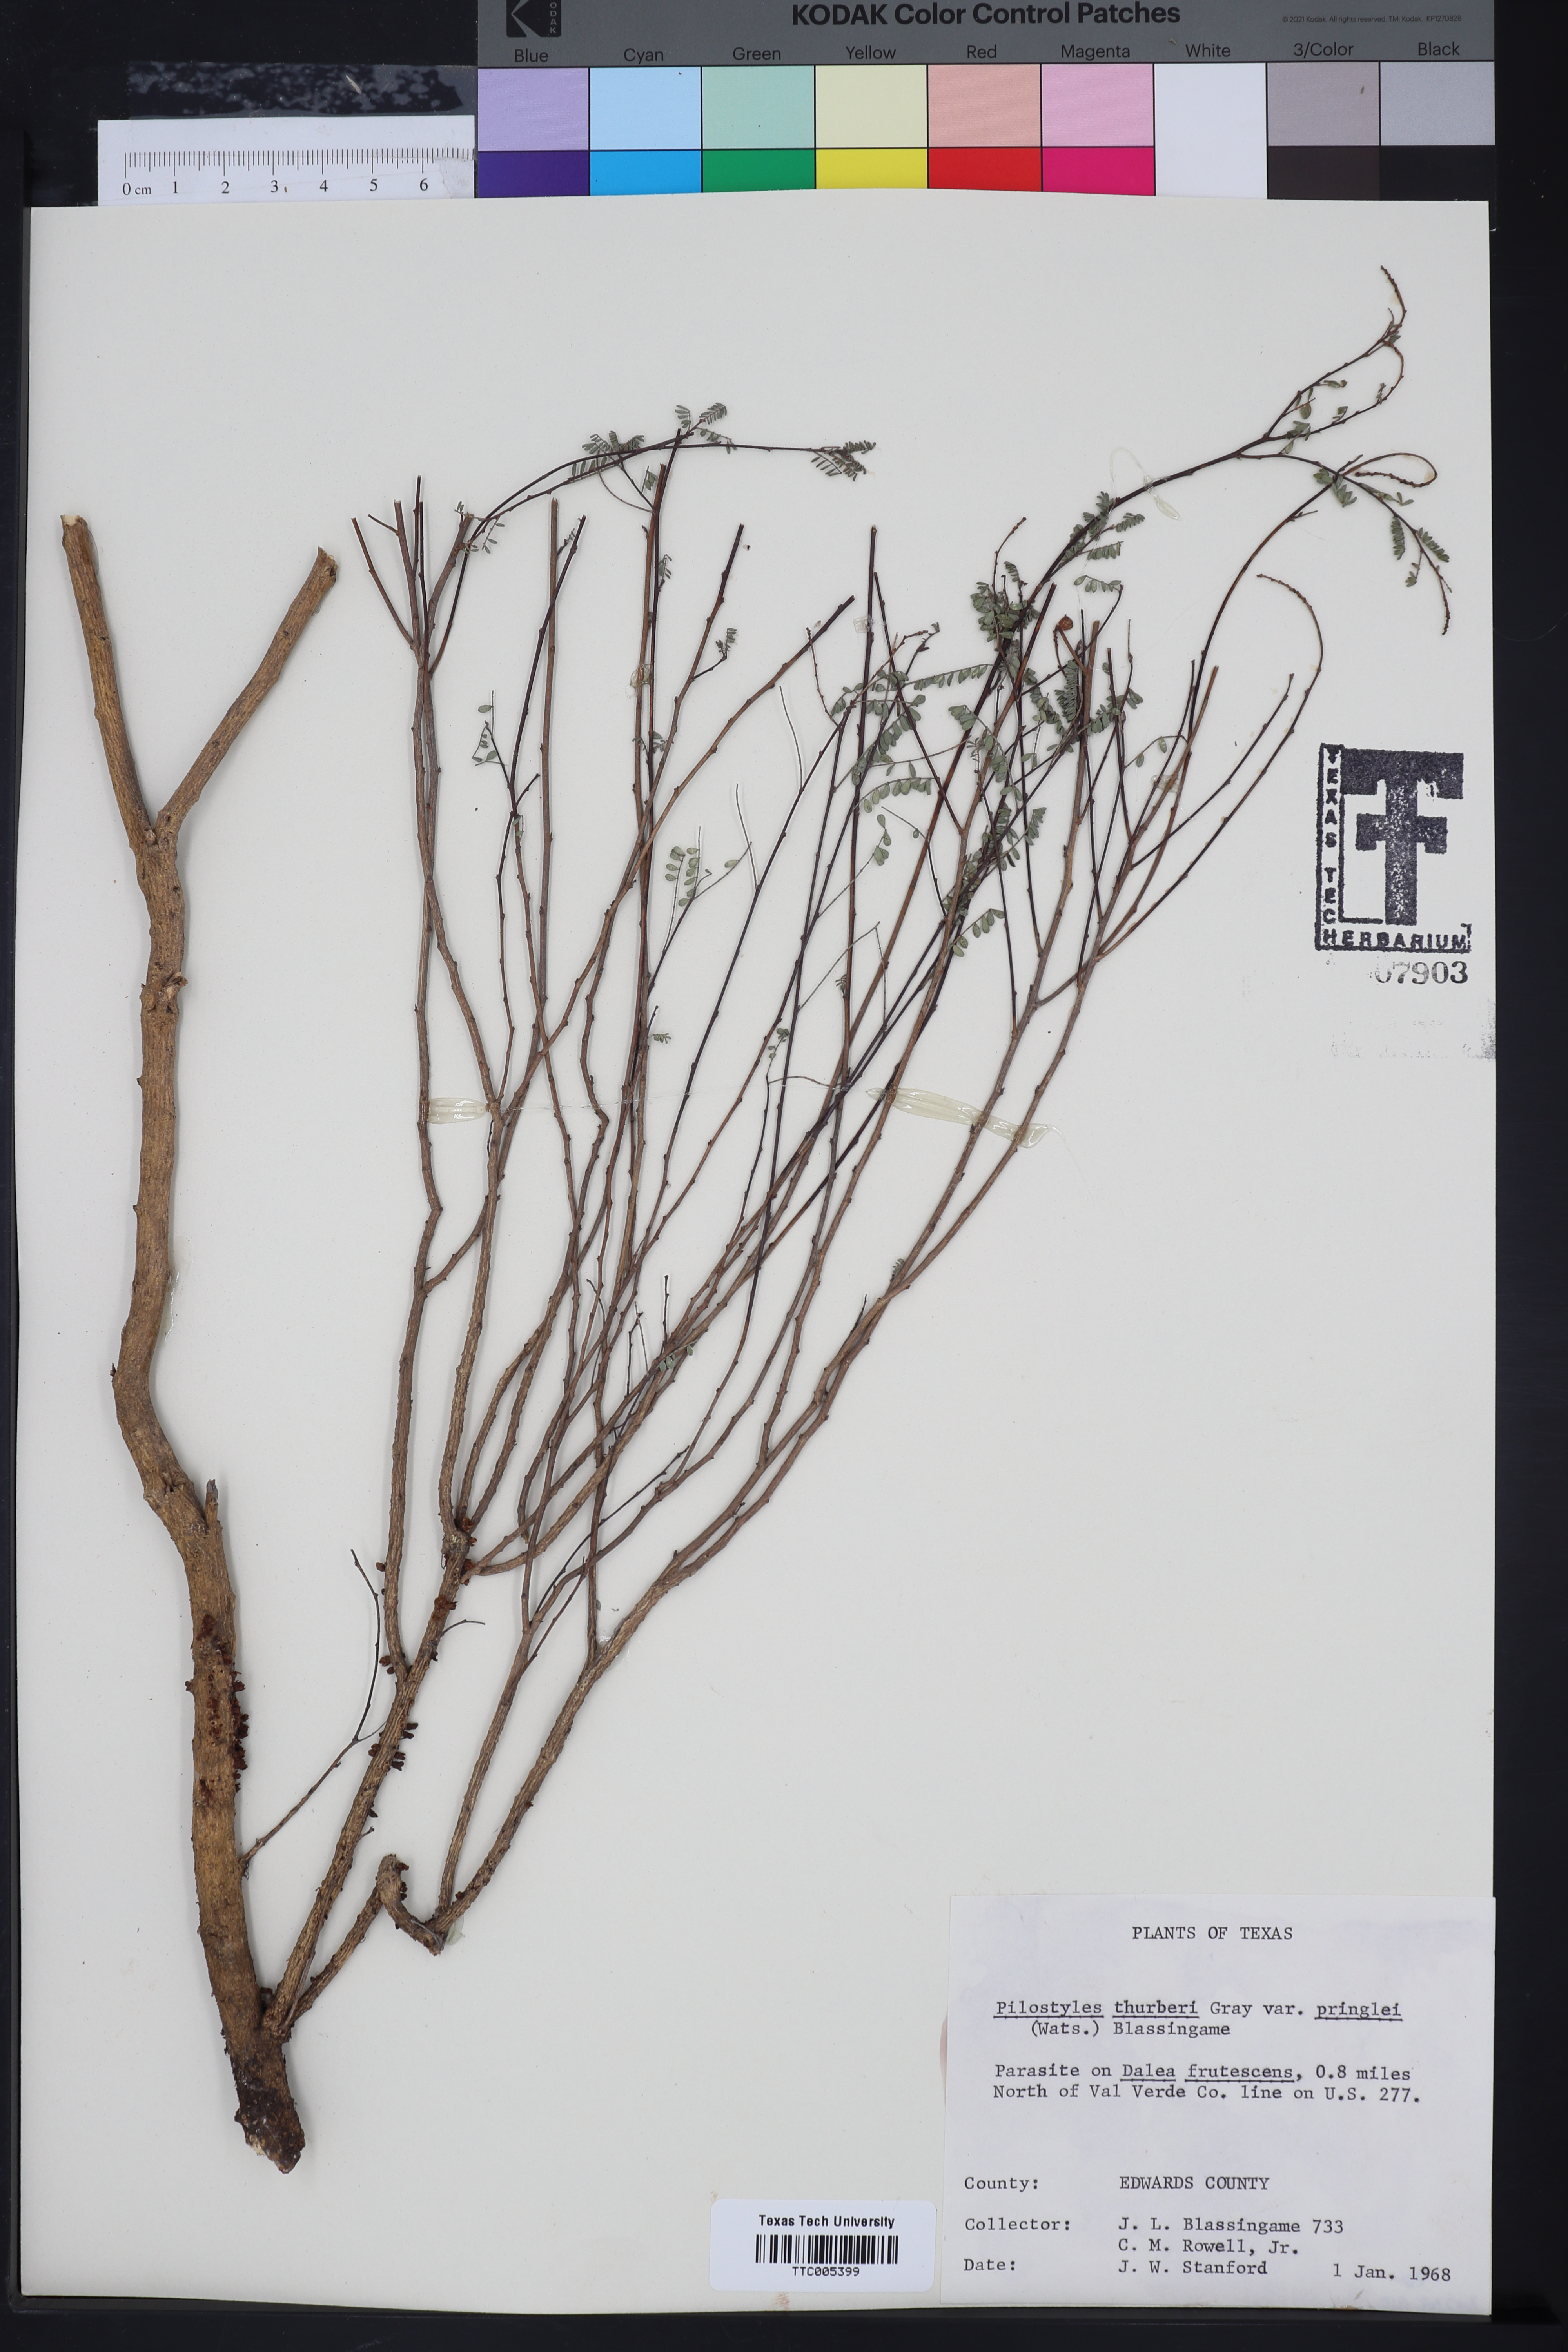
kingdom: Plantae
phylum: Tracheophyta
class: Magnoliopsida
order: Cucurbitales
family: Apodanthaceae
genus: Pilostyles
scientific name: Pilostyles thurberi
